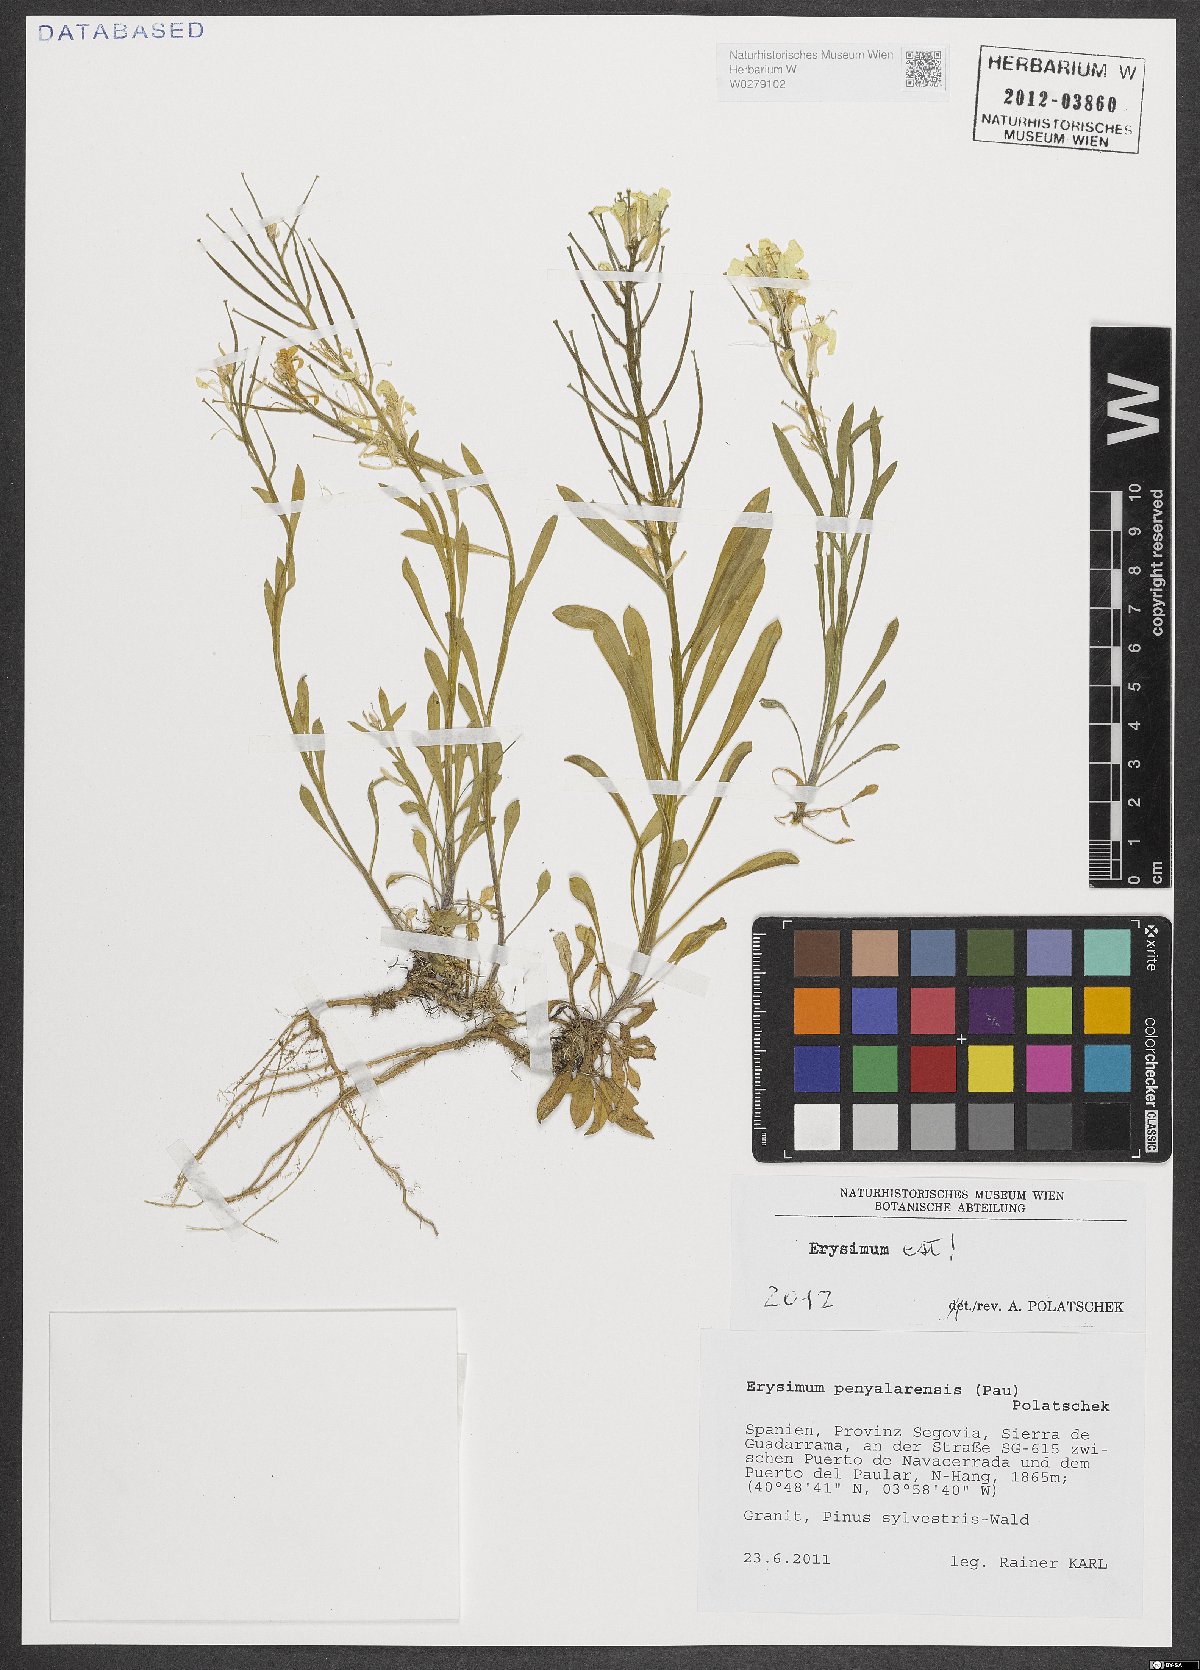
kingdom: Plantae
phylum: Tracheophyta
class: Magnoliopsida
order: Brassicales
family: Brassicaceae
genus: Erysimum
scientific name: Erysimum penyalarense
